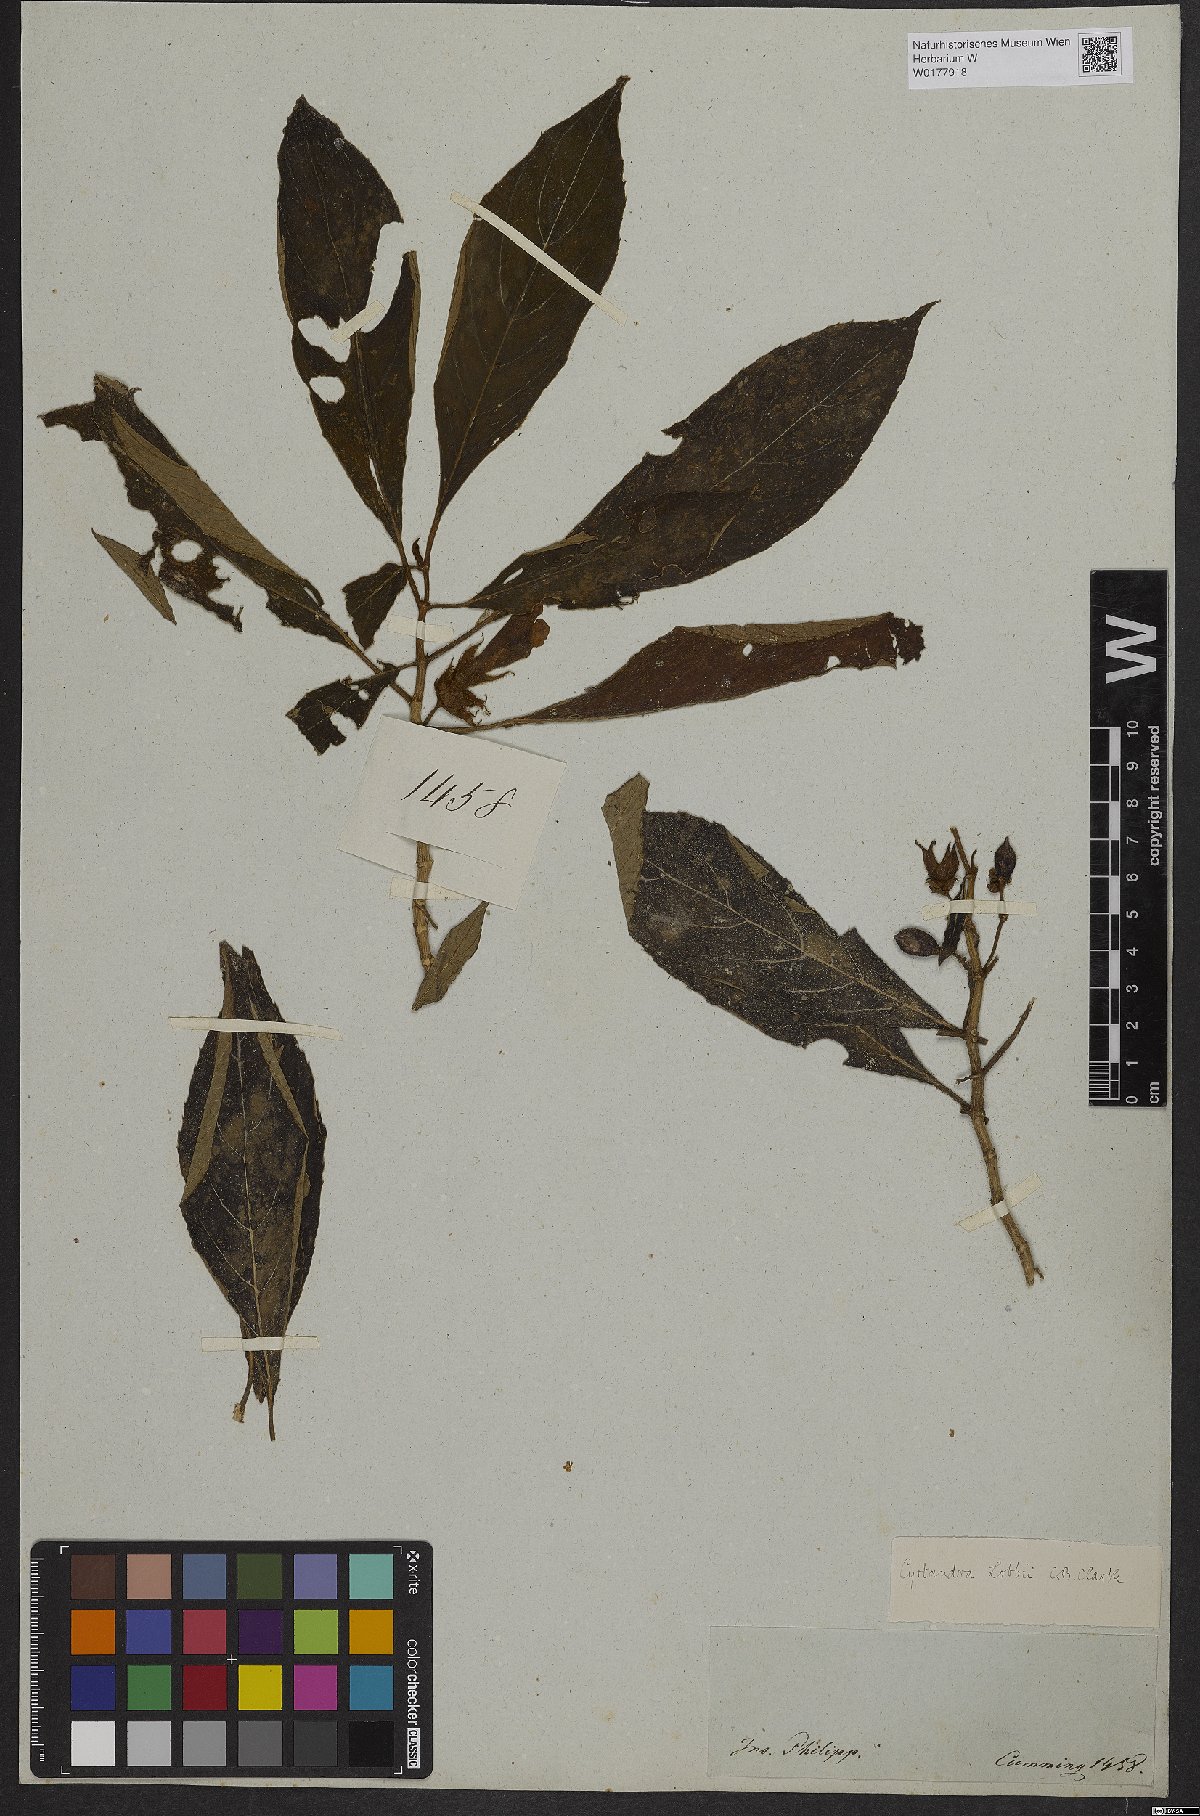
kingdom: Plantae
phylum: Tracheophyta
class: Magnoliopsida
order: Lamiales
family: Gesneriaceae
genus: Cyrtandra
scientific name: Cyrtandra lobbii
